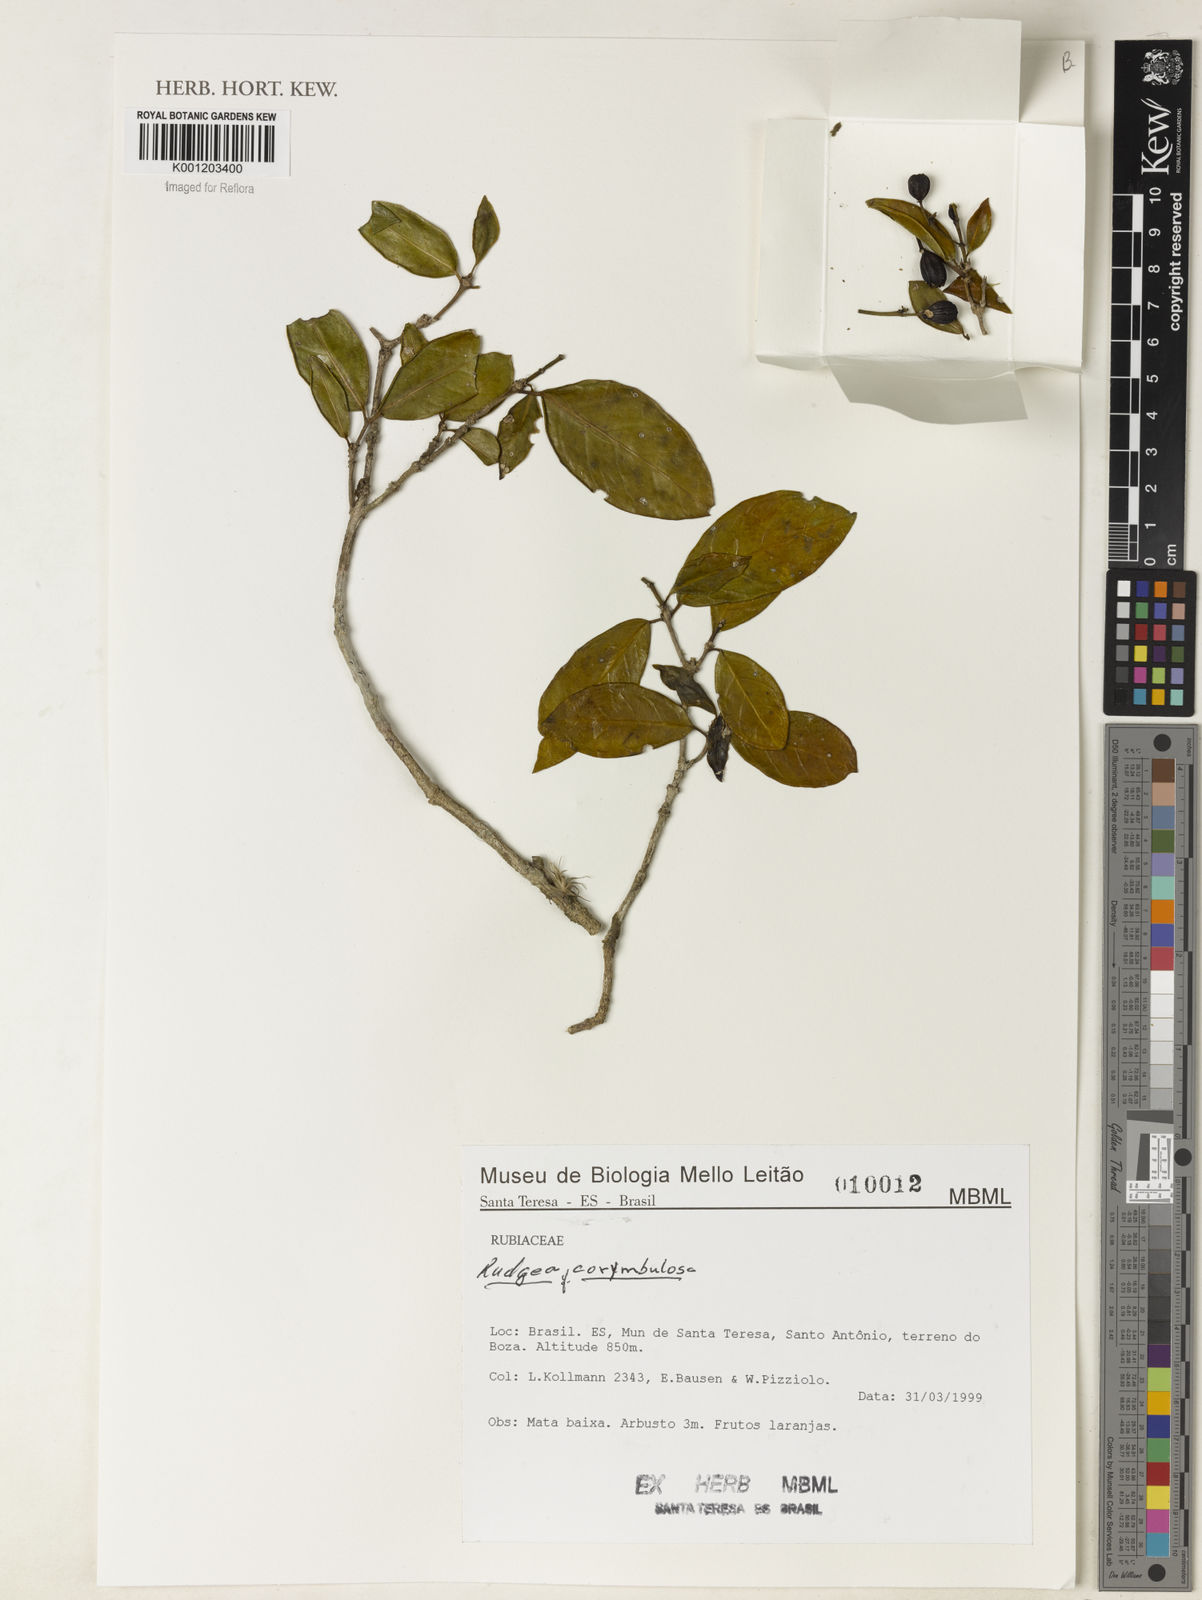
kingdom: Plantae
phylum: Tracheophyta
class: Magnoliopsida
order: Gentianales
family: Rubiaceae
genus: Rudgea
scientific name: Rudgea corymbulosa
